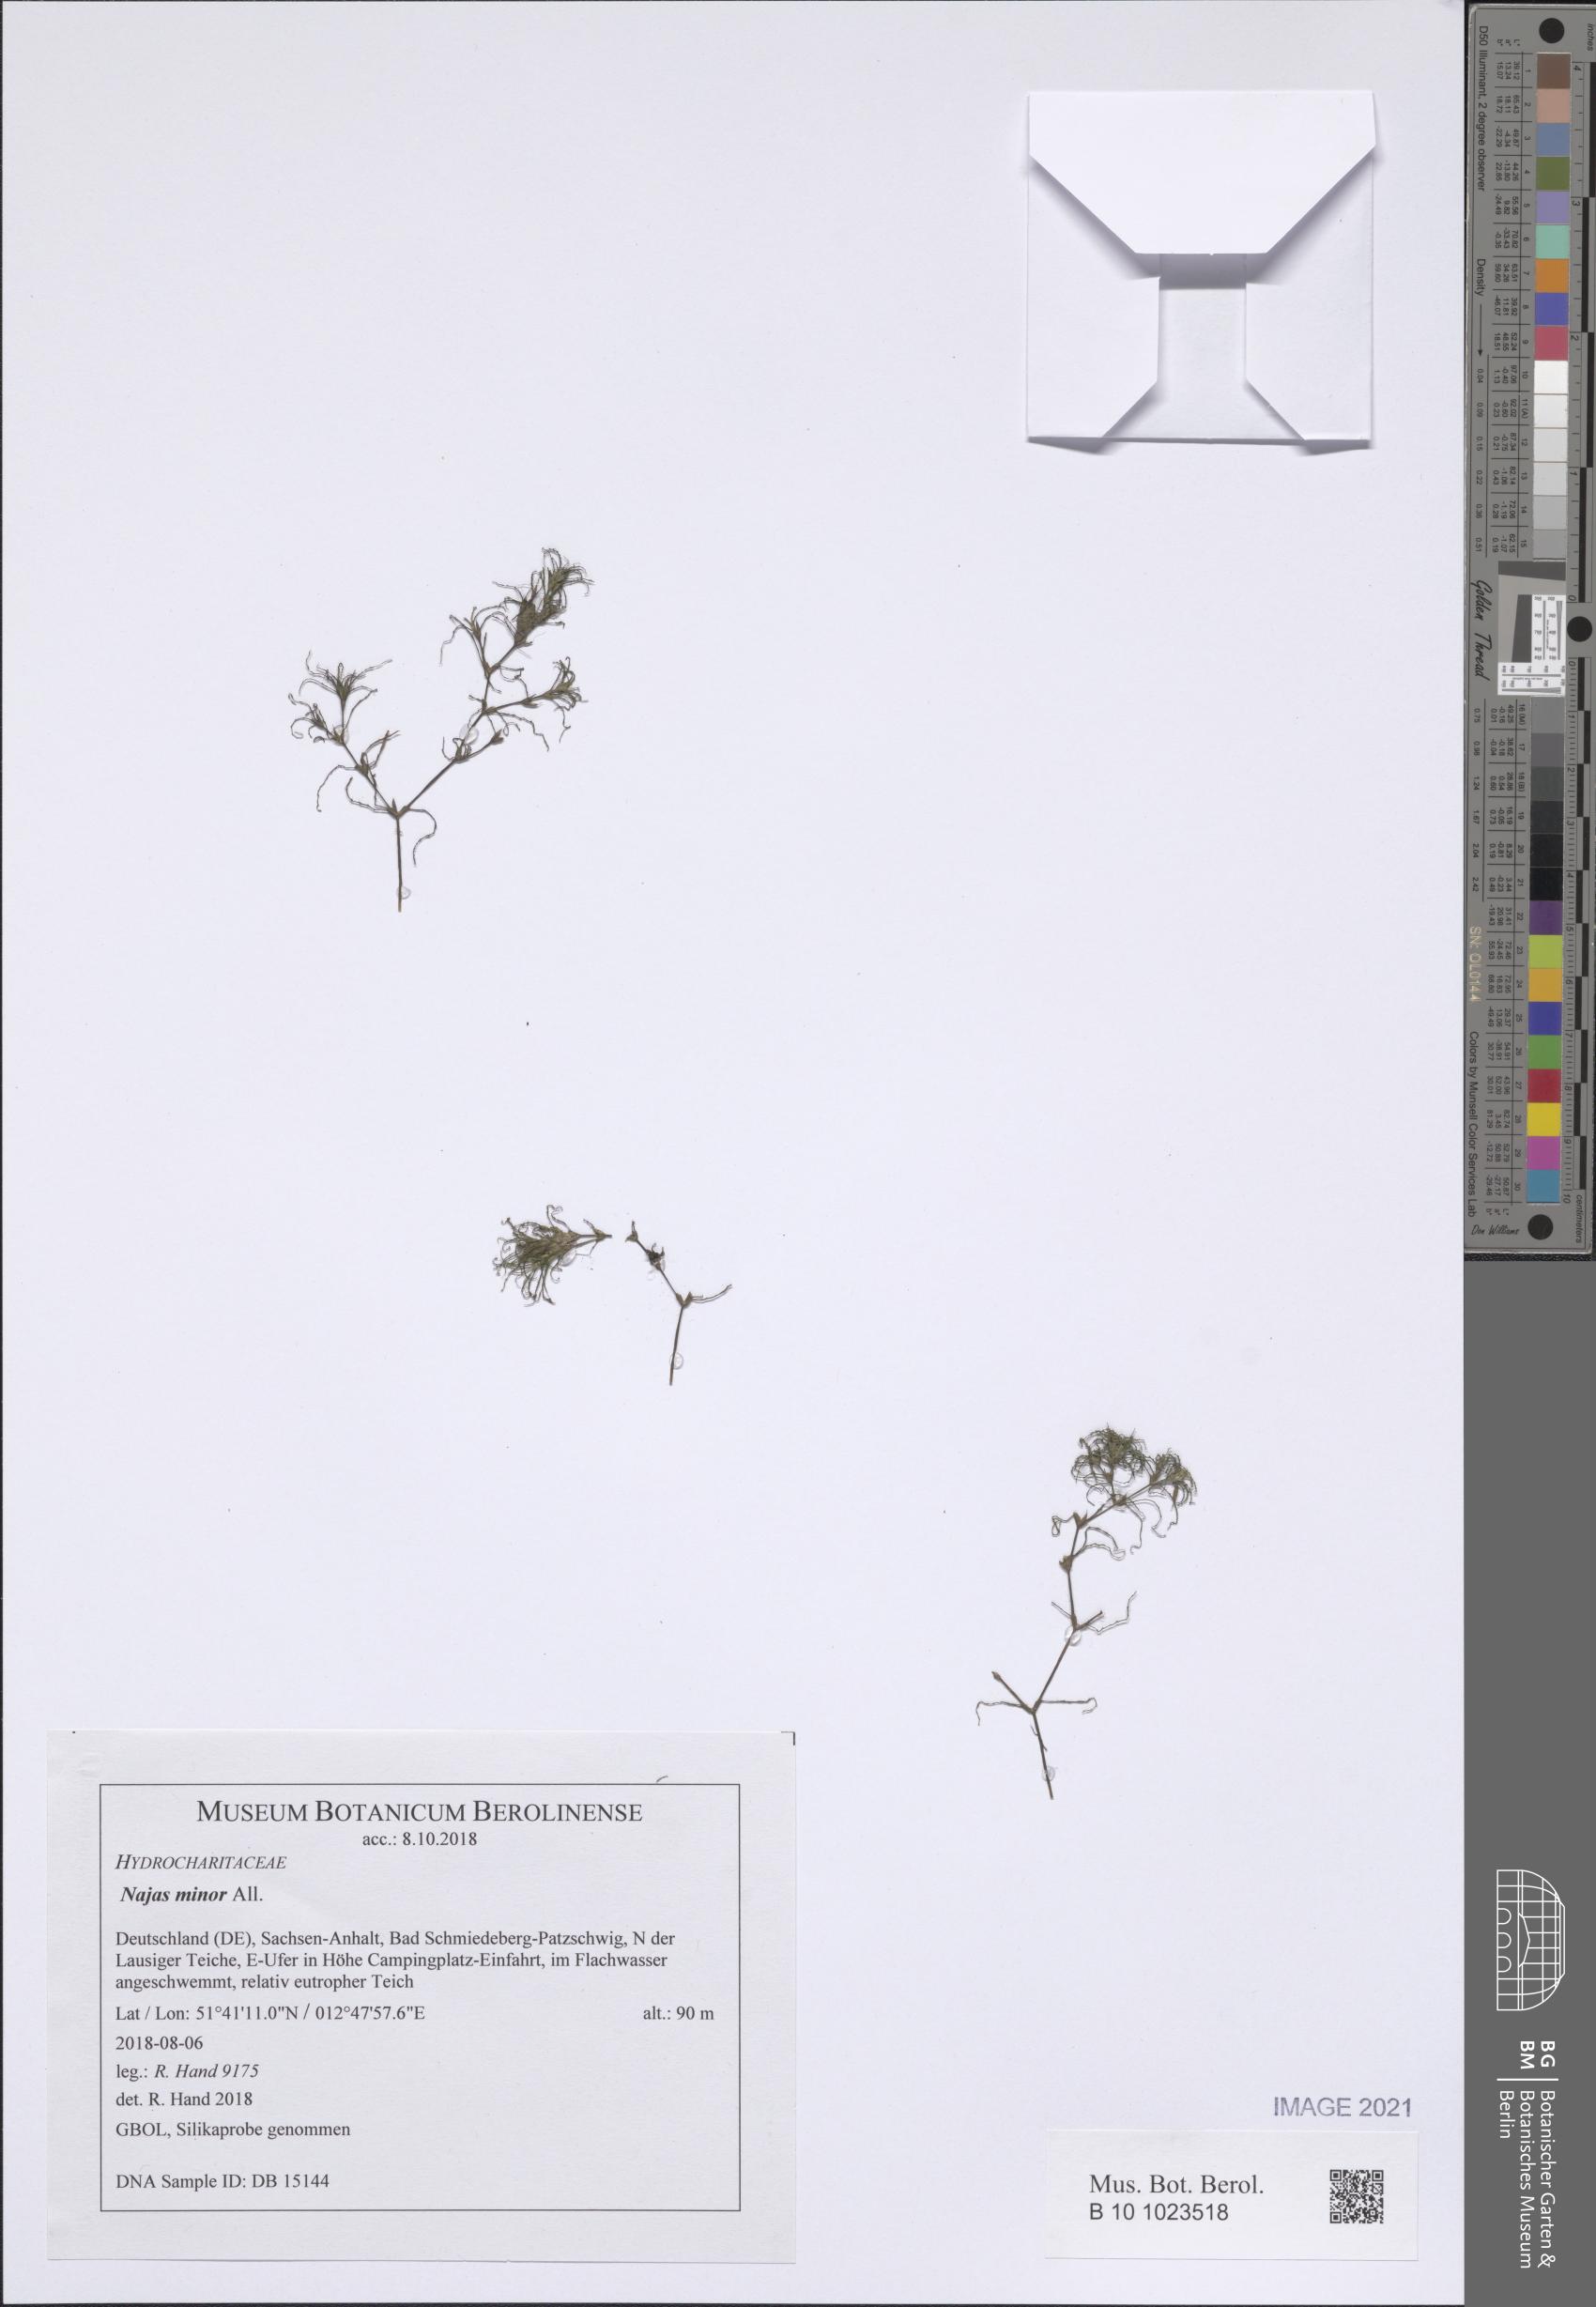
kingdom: Plantae
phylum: Tracheophyta
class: Liliopsida
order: Alismatales
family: Hydrocharitaceae
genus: Najas
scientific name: Najas minor
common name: Brittle naiad
